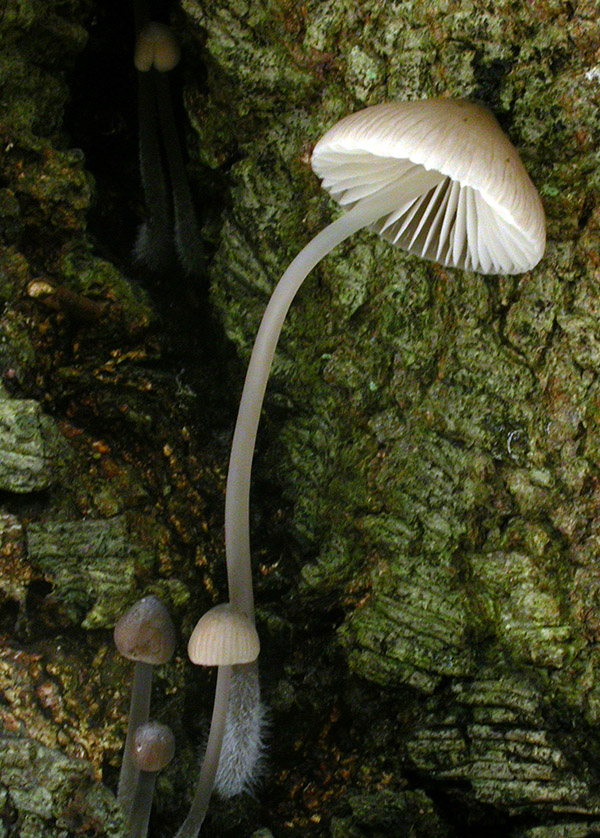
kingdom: Fungi
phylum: Basidiomycota
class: Agaricomycetes
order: Agaricales
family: Mycenaceae
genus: Mycena
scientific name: Mycena abramsii
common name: sommer-huesvamp
